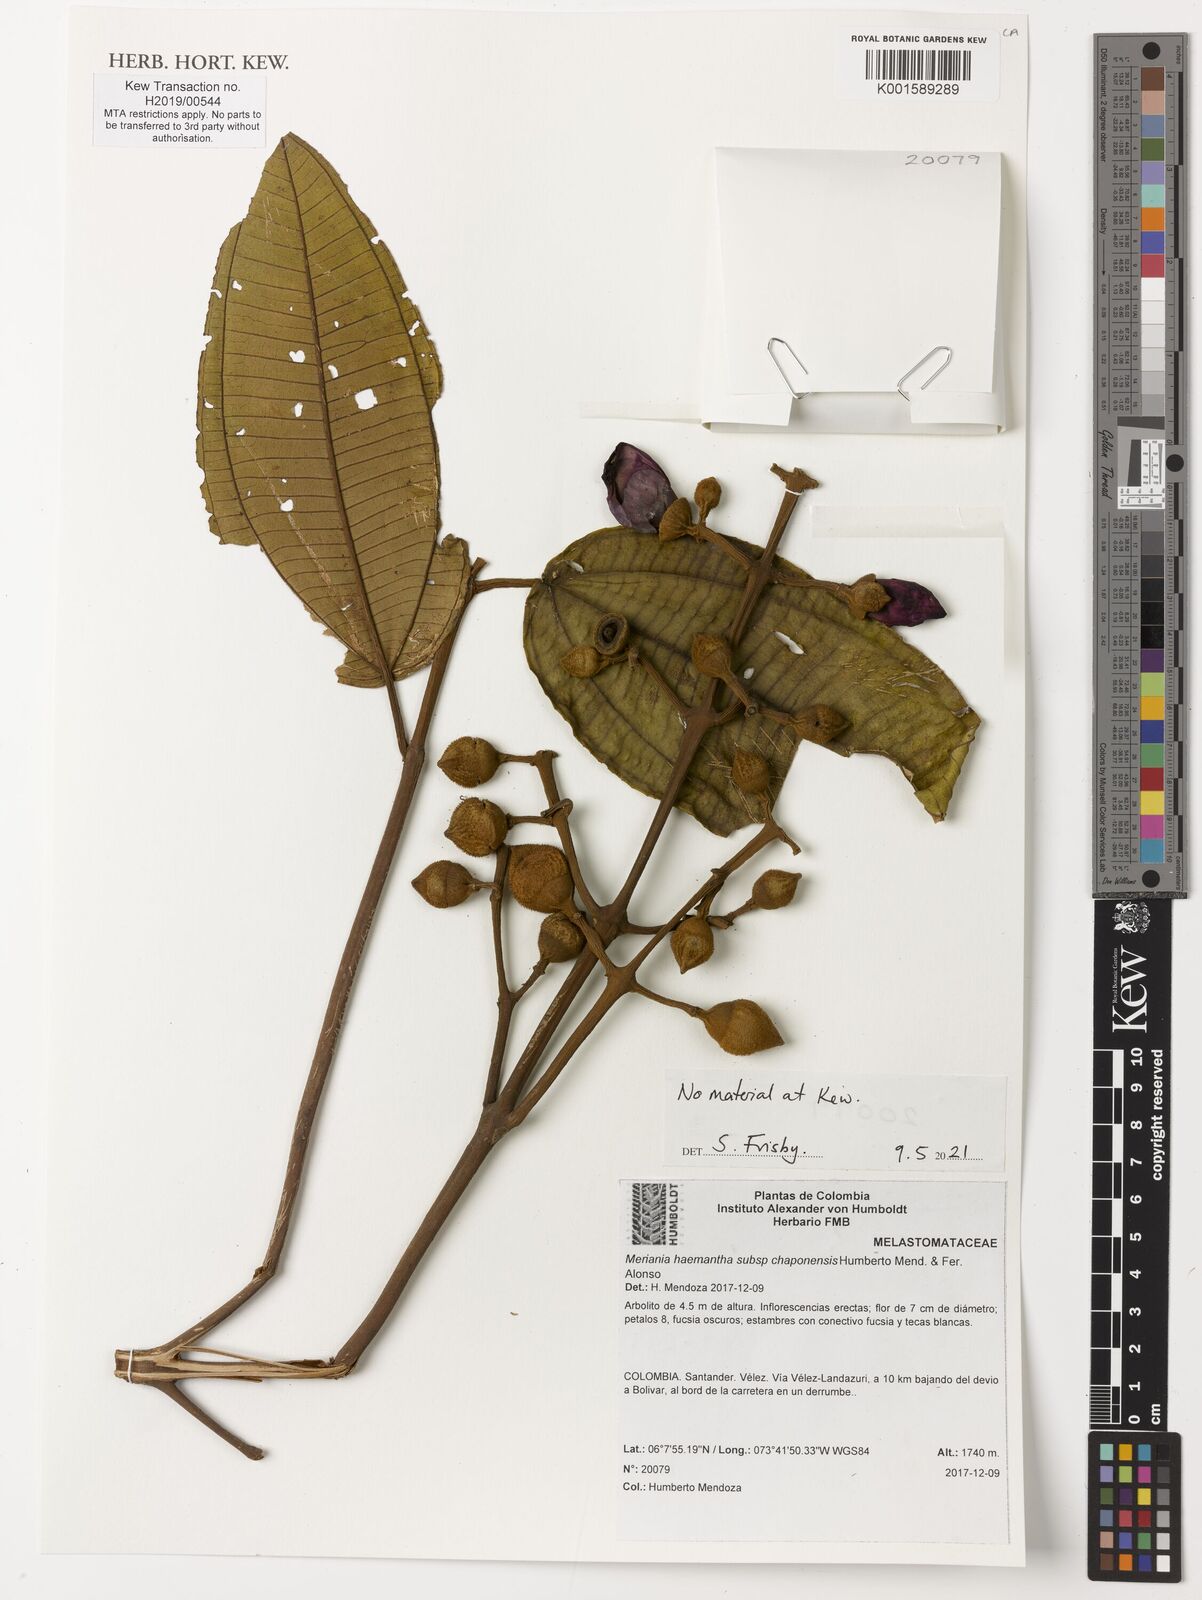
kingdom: Plantae
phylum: Tracheophyta
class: Magnoliopsida
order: Myrtales
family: Melastomataceae
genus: Meriania
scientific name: Meriania haemantha
